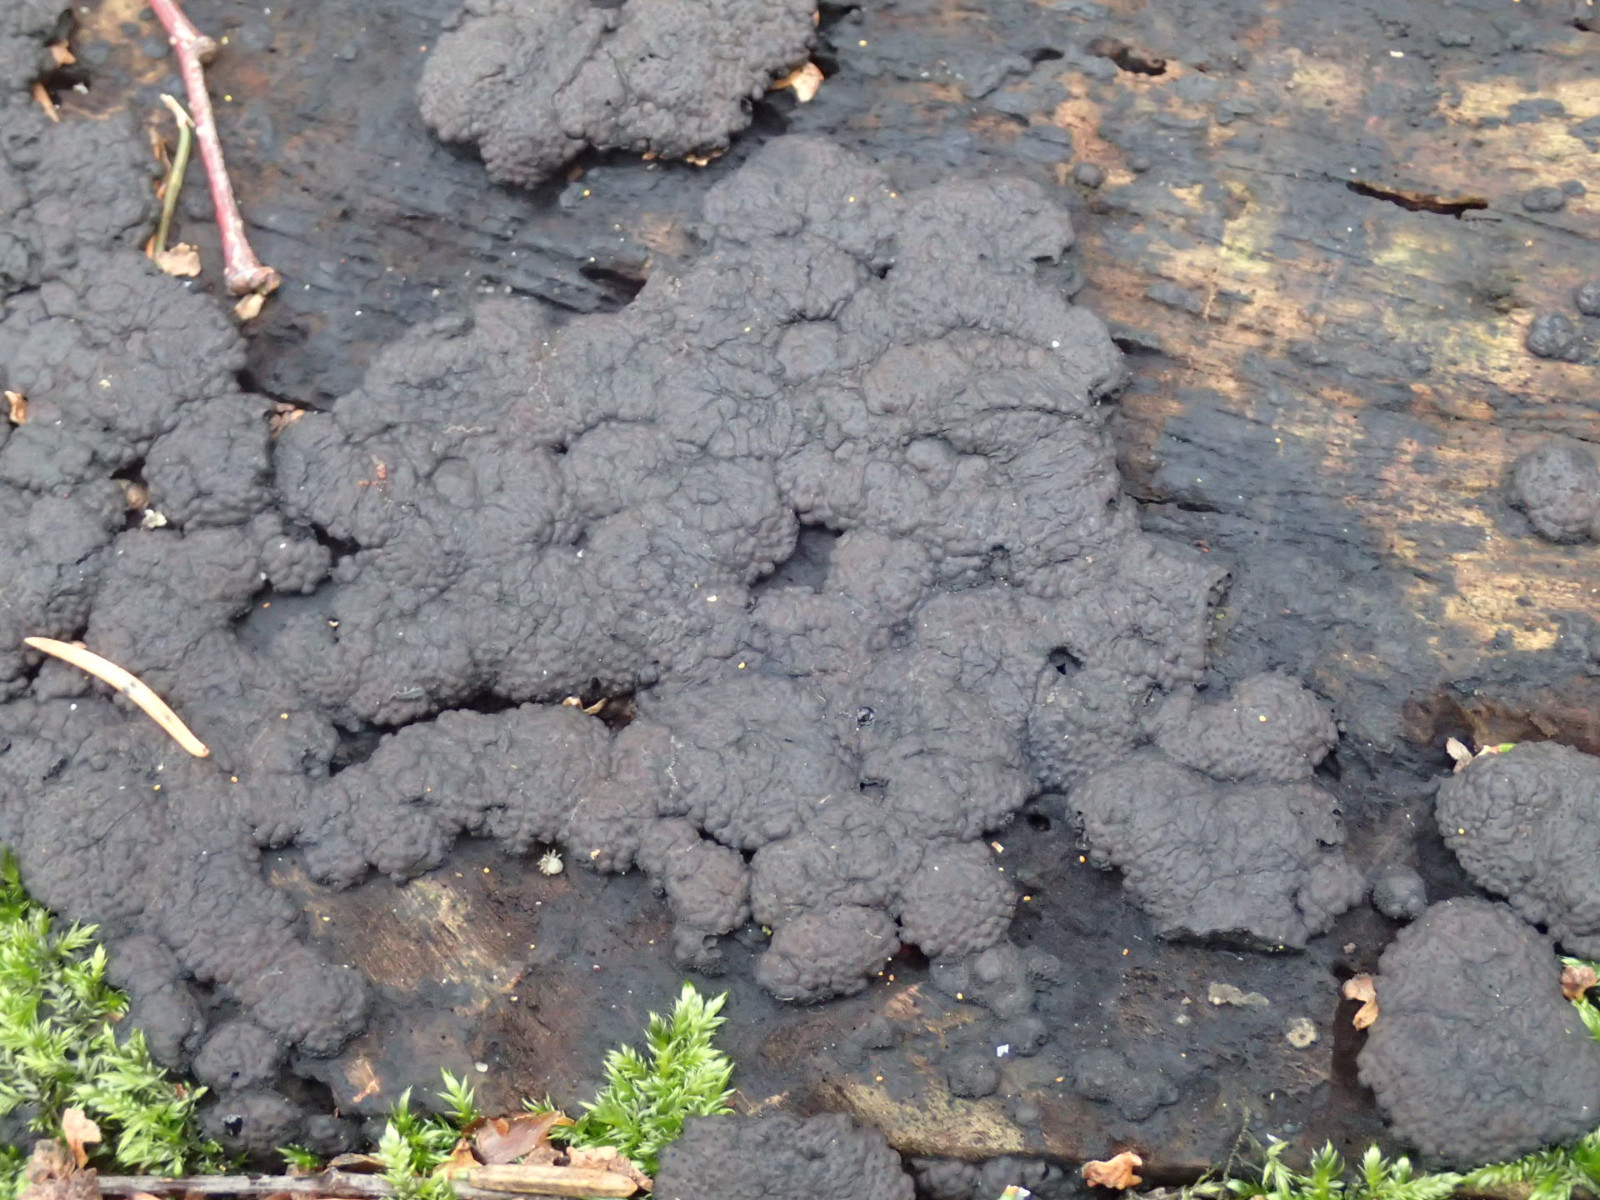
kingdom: Fungi
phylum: Ascomycota
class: Sordariomycetes
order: Xylariales
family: Hypoxylaceae
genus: Jackrogersella
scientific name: Jackrogersella multiformis
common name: foranderlig kulbær
